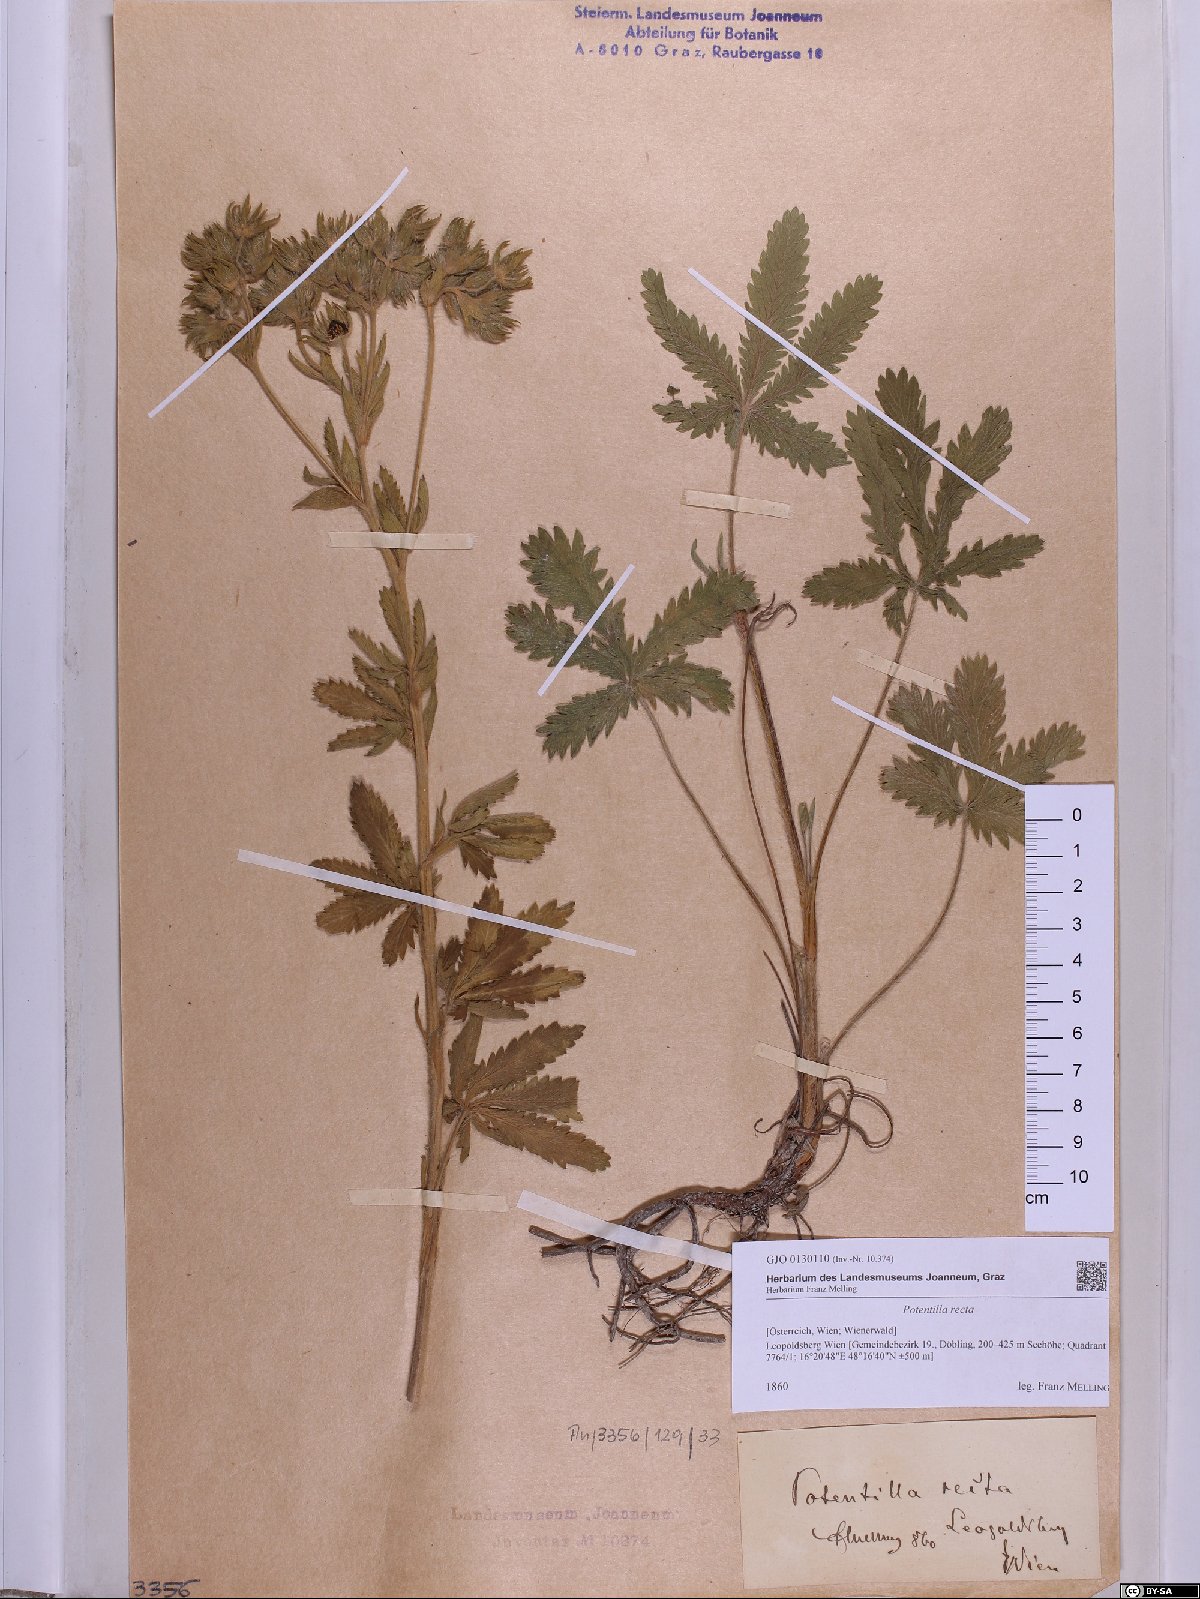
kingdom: Plantae
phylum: Tracheophyta
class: Magnoliopsida
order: Rosales
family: Rosaceae
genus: Potentilla
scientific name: Potentilla recta
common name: Sulphur cinquefoil
